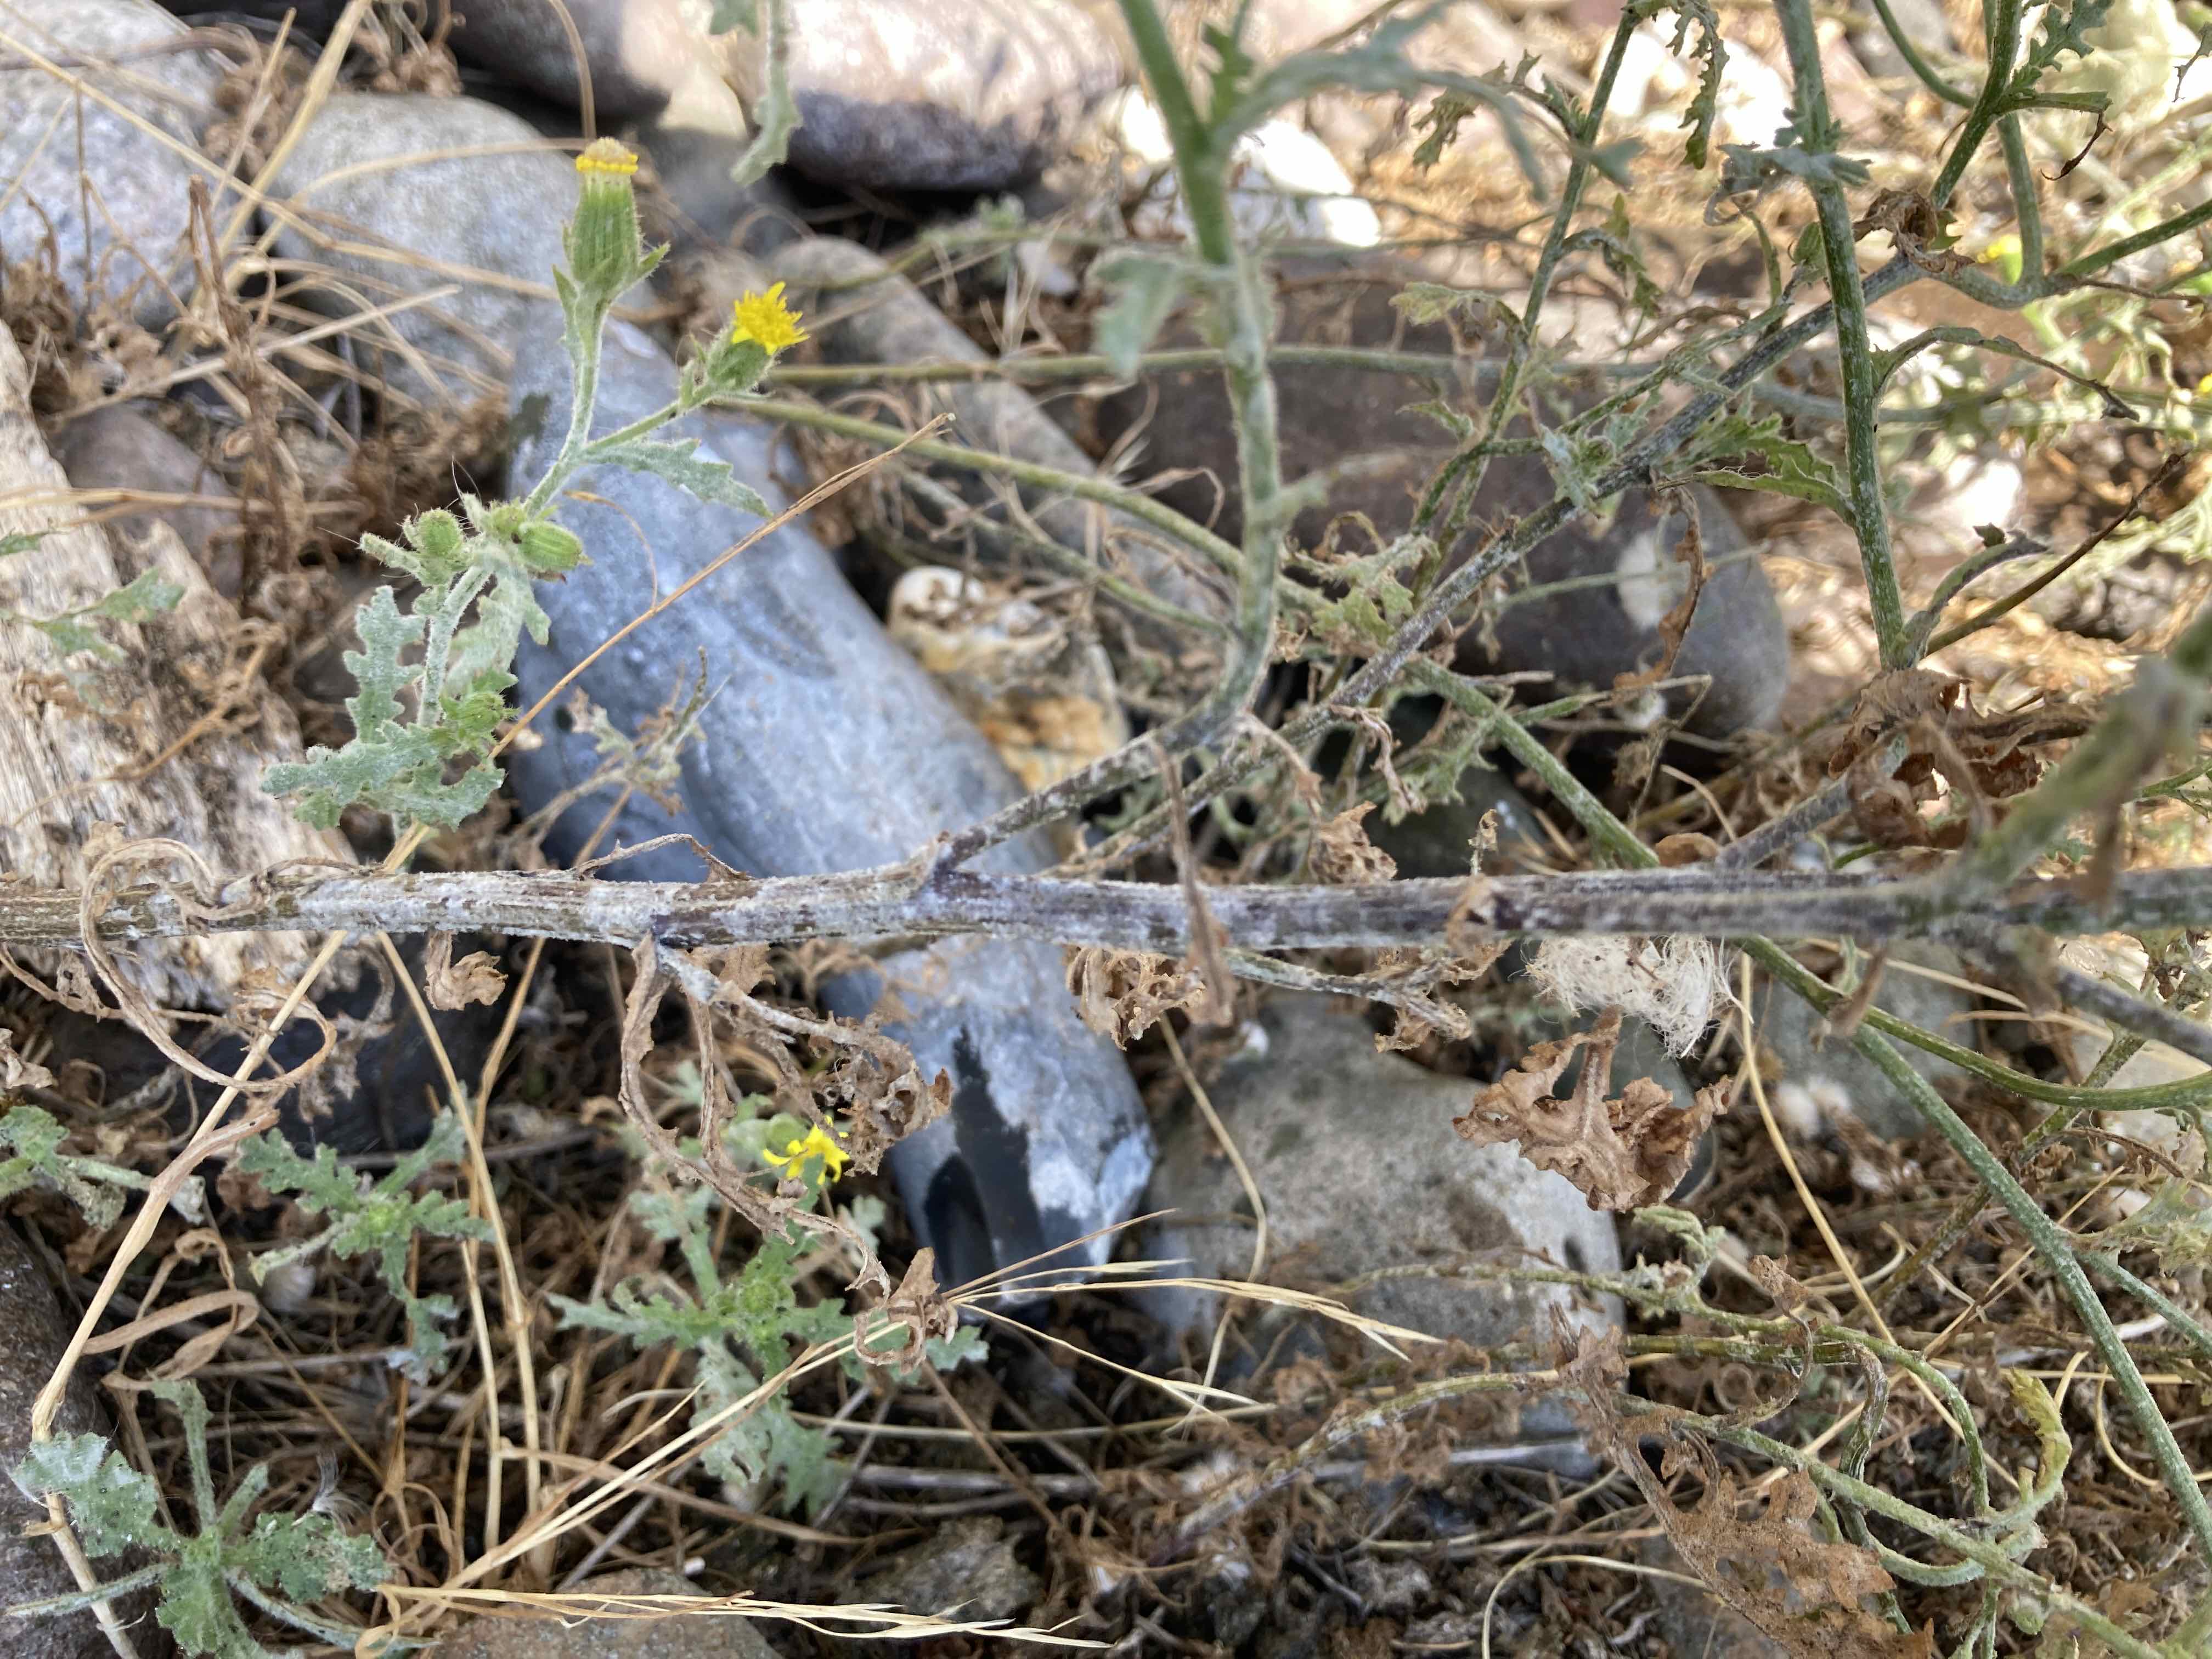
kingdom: Fungi
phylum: Ascomycota
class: Leotiomycetes
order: Helotiales
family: Erysiphaceae
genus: Golovinomyces
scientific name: Golovinomyces fischeri
